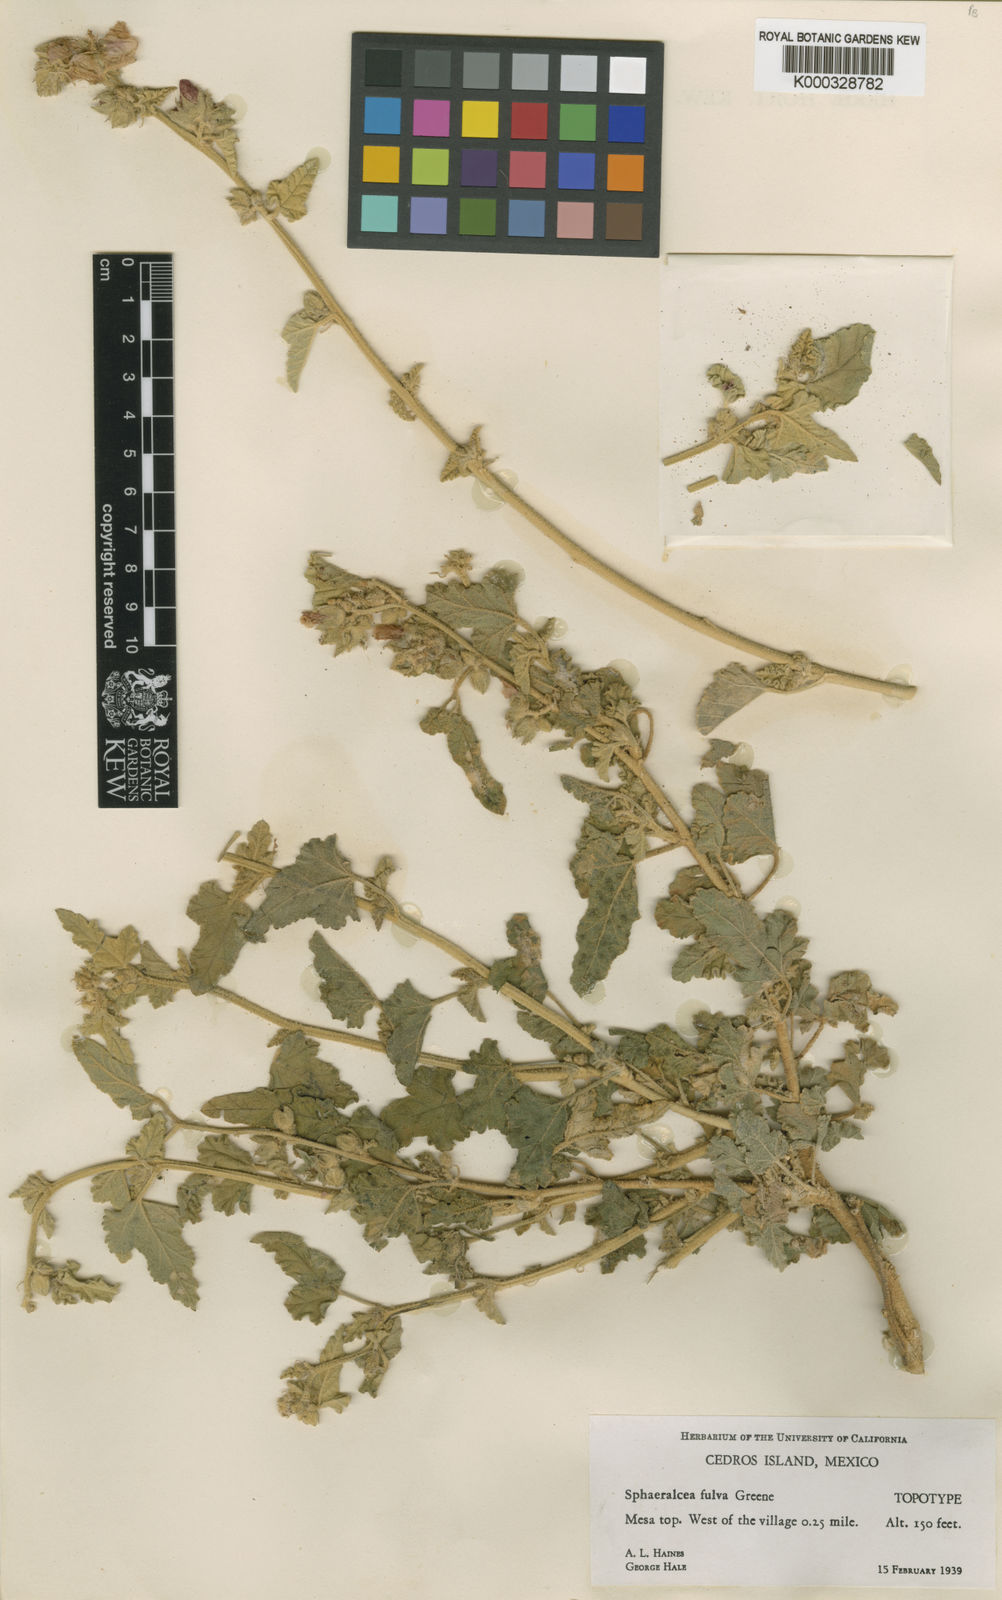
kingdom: Plantae
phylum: Tracheophyta
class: Magnoliopsida
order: Malvales
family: Malvaceae
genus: Sphaeralcea
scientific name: Sphaeralcea fulva
